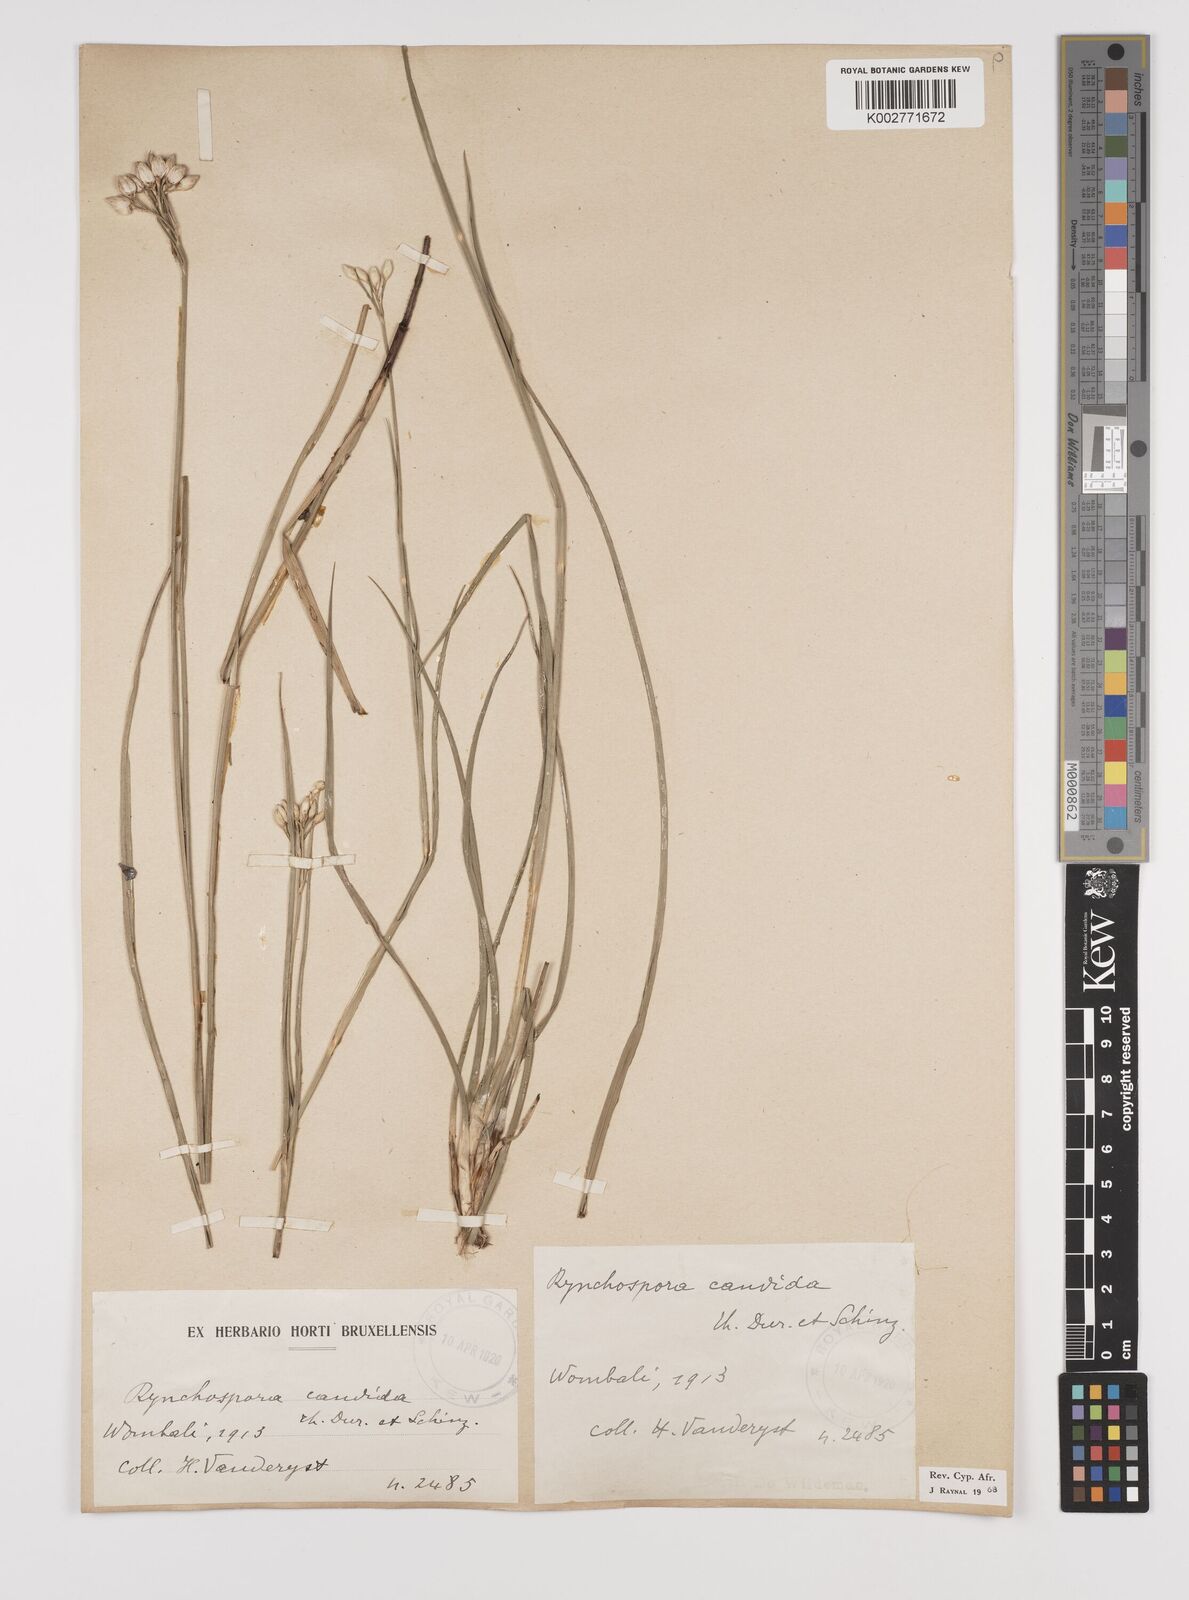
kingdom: Plantae
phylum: Tracheophyta
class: Liliopsida
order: Poales
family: Cyperaceae
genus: Rhynchospora
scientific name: Rhynchospora candida
